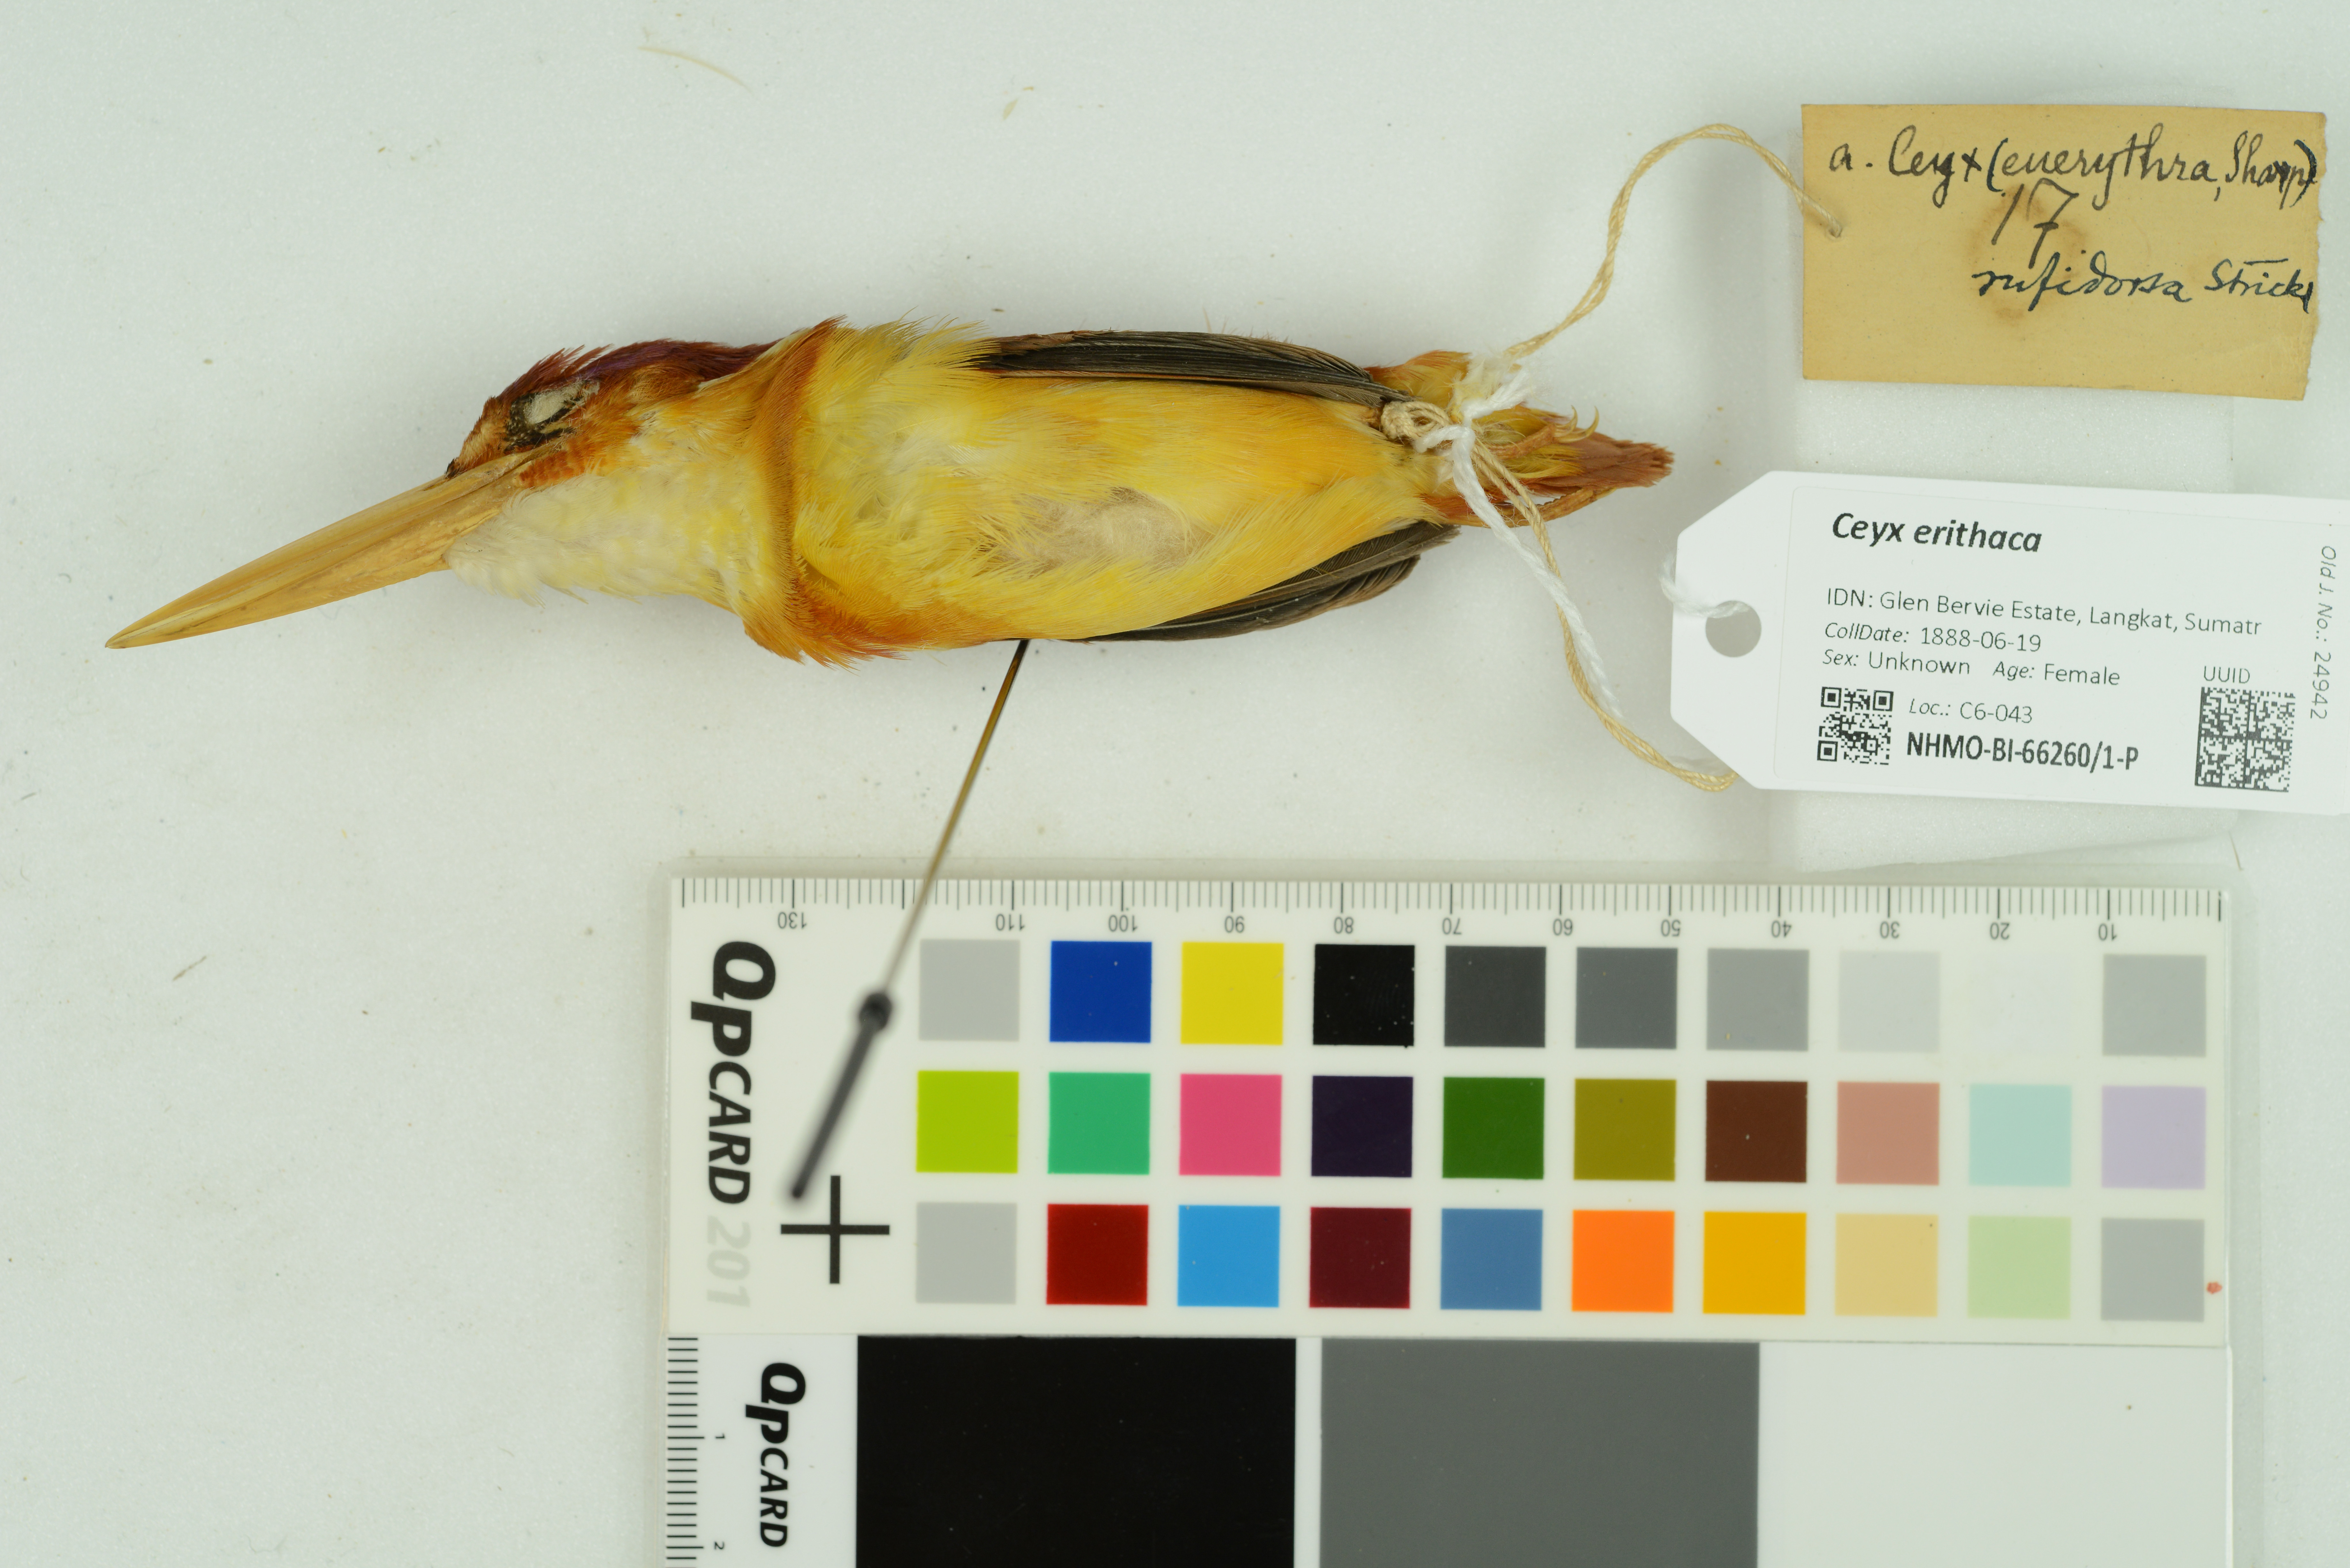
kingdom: Animalia
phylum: Chordata
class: Aves
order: Coraciiformes
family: Alcedinidae
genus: Ceyx
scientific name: Ceyx erithaca
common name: Oriental dwarf kingfisher
